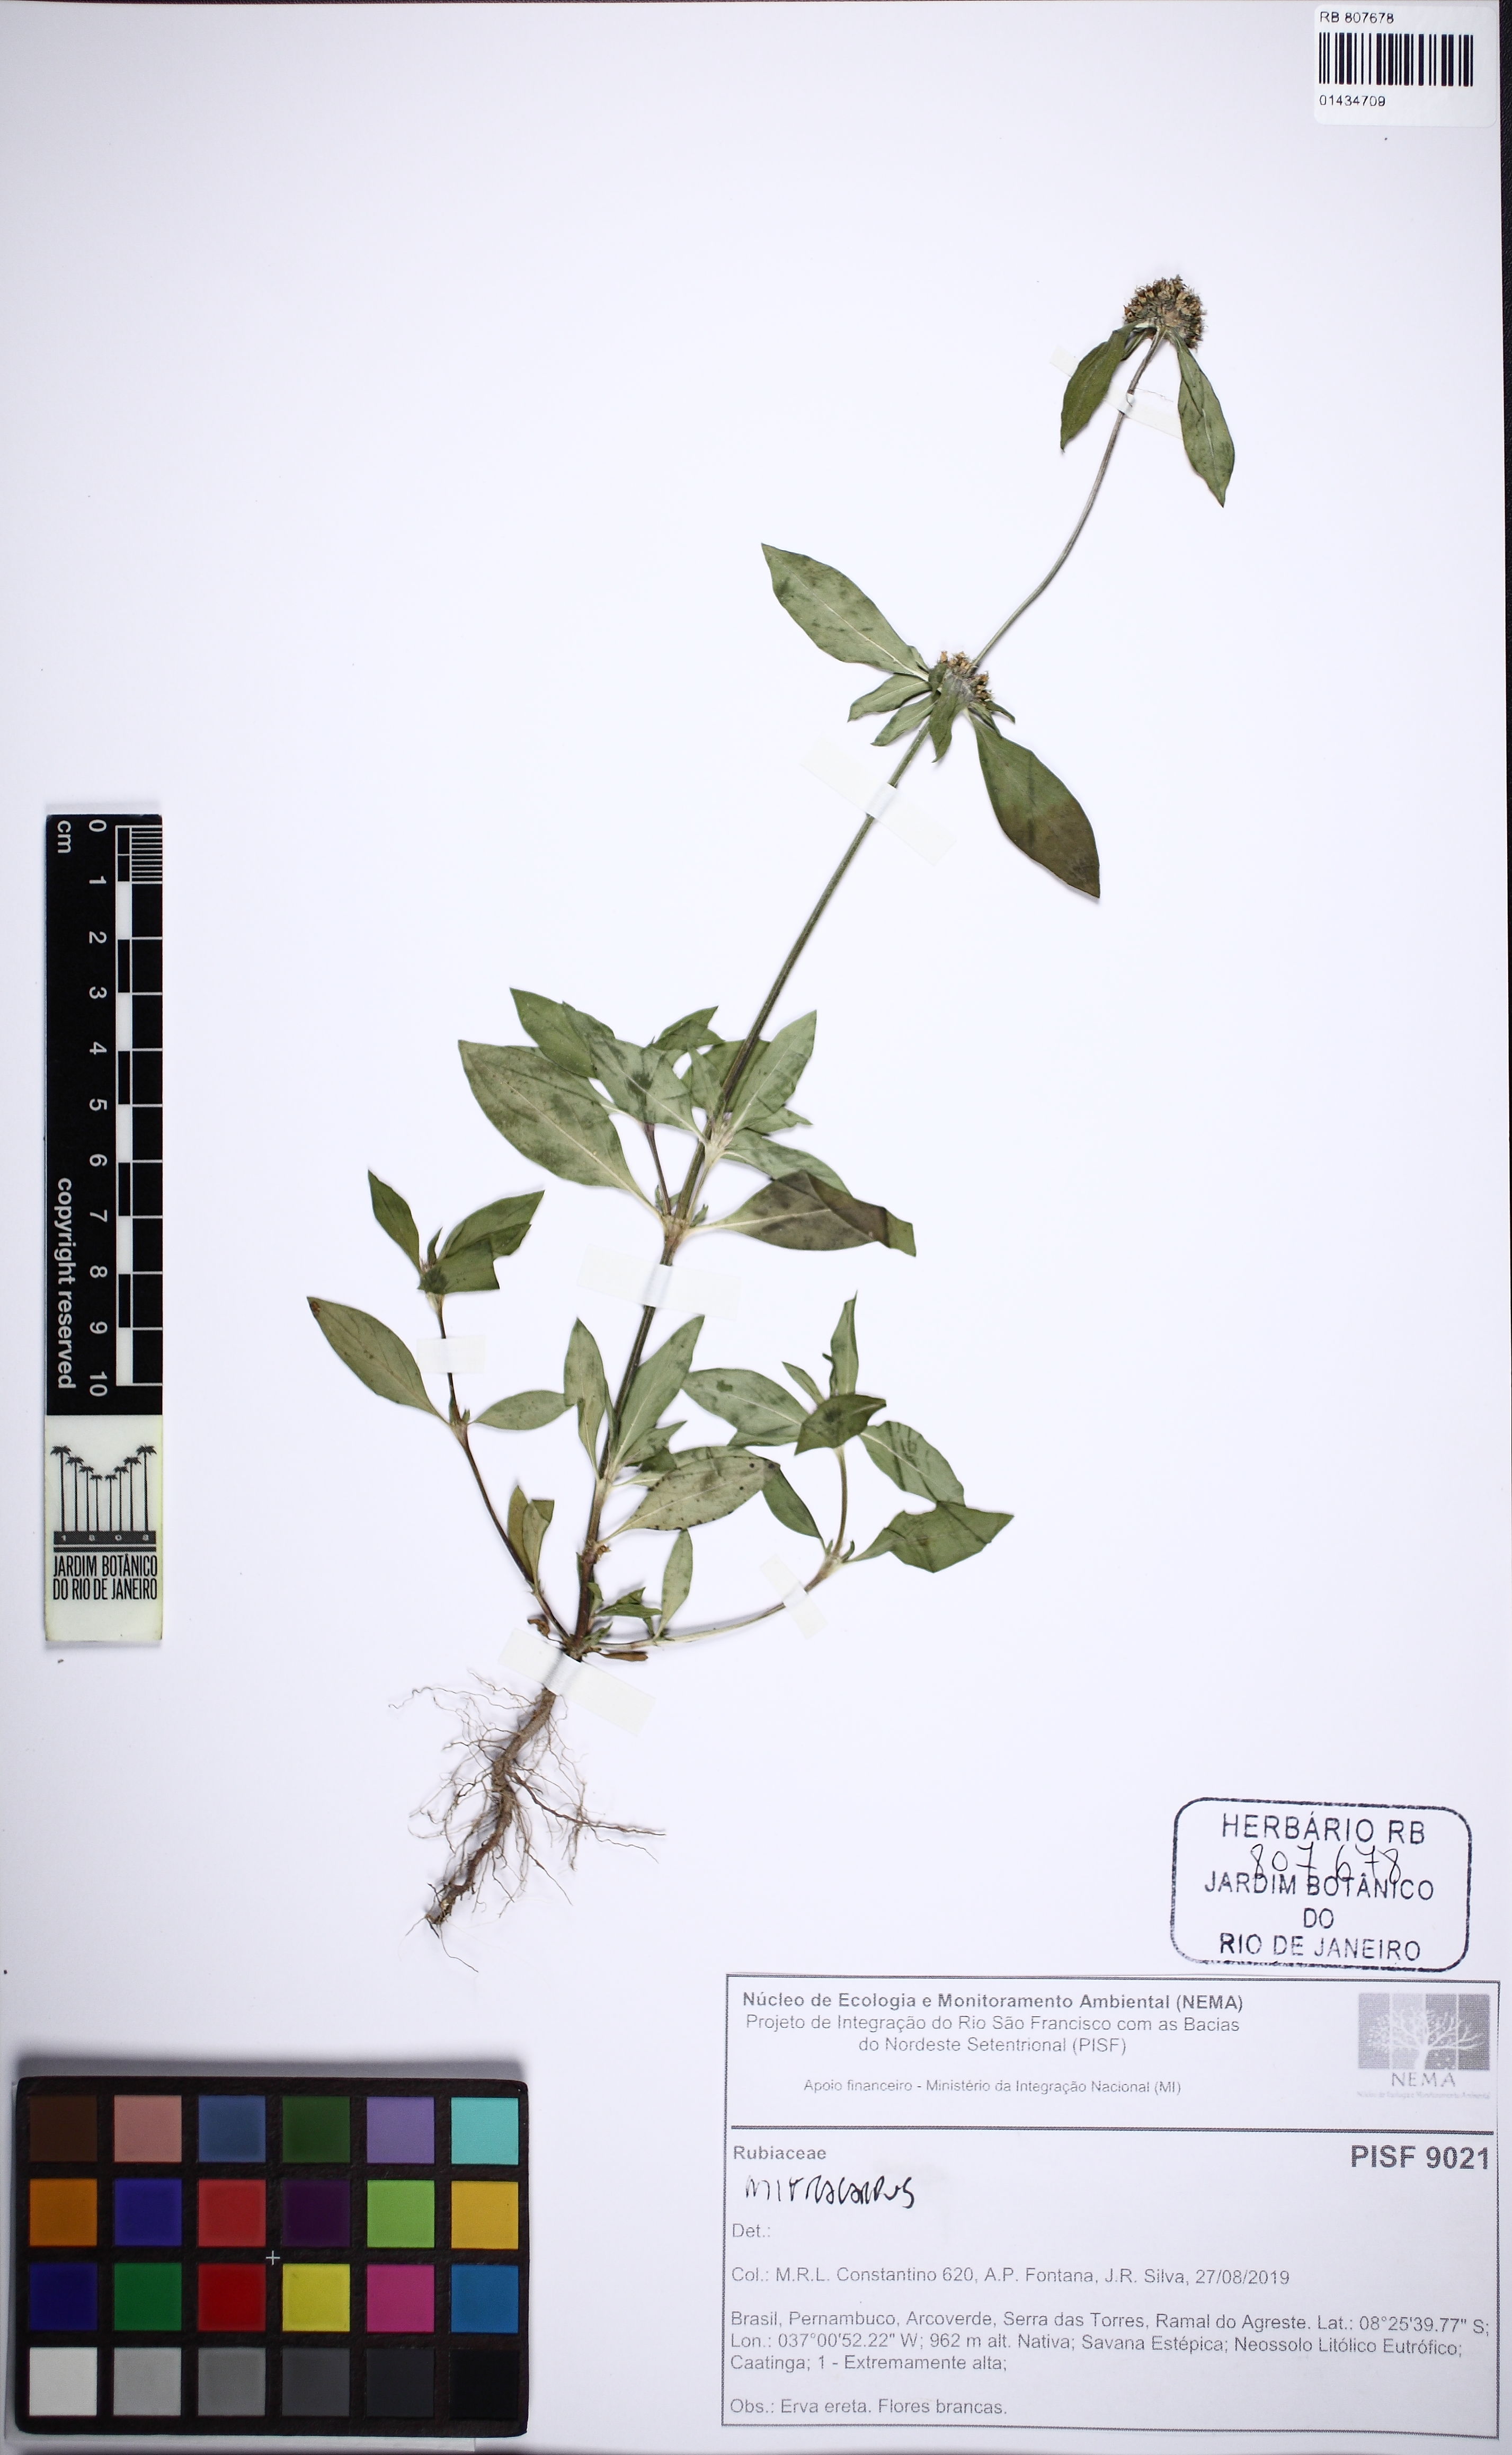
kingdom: Plantae
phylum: Tracheophyta
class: Magnoliopsida
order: Gentianales
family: Rubiaceae
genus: Mitracarpus
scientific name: Mitracarpus
